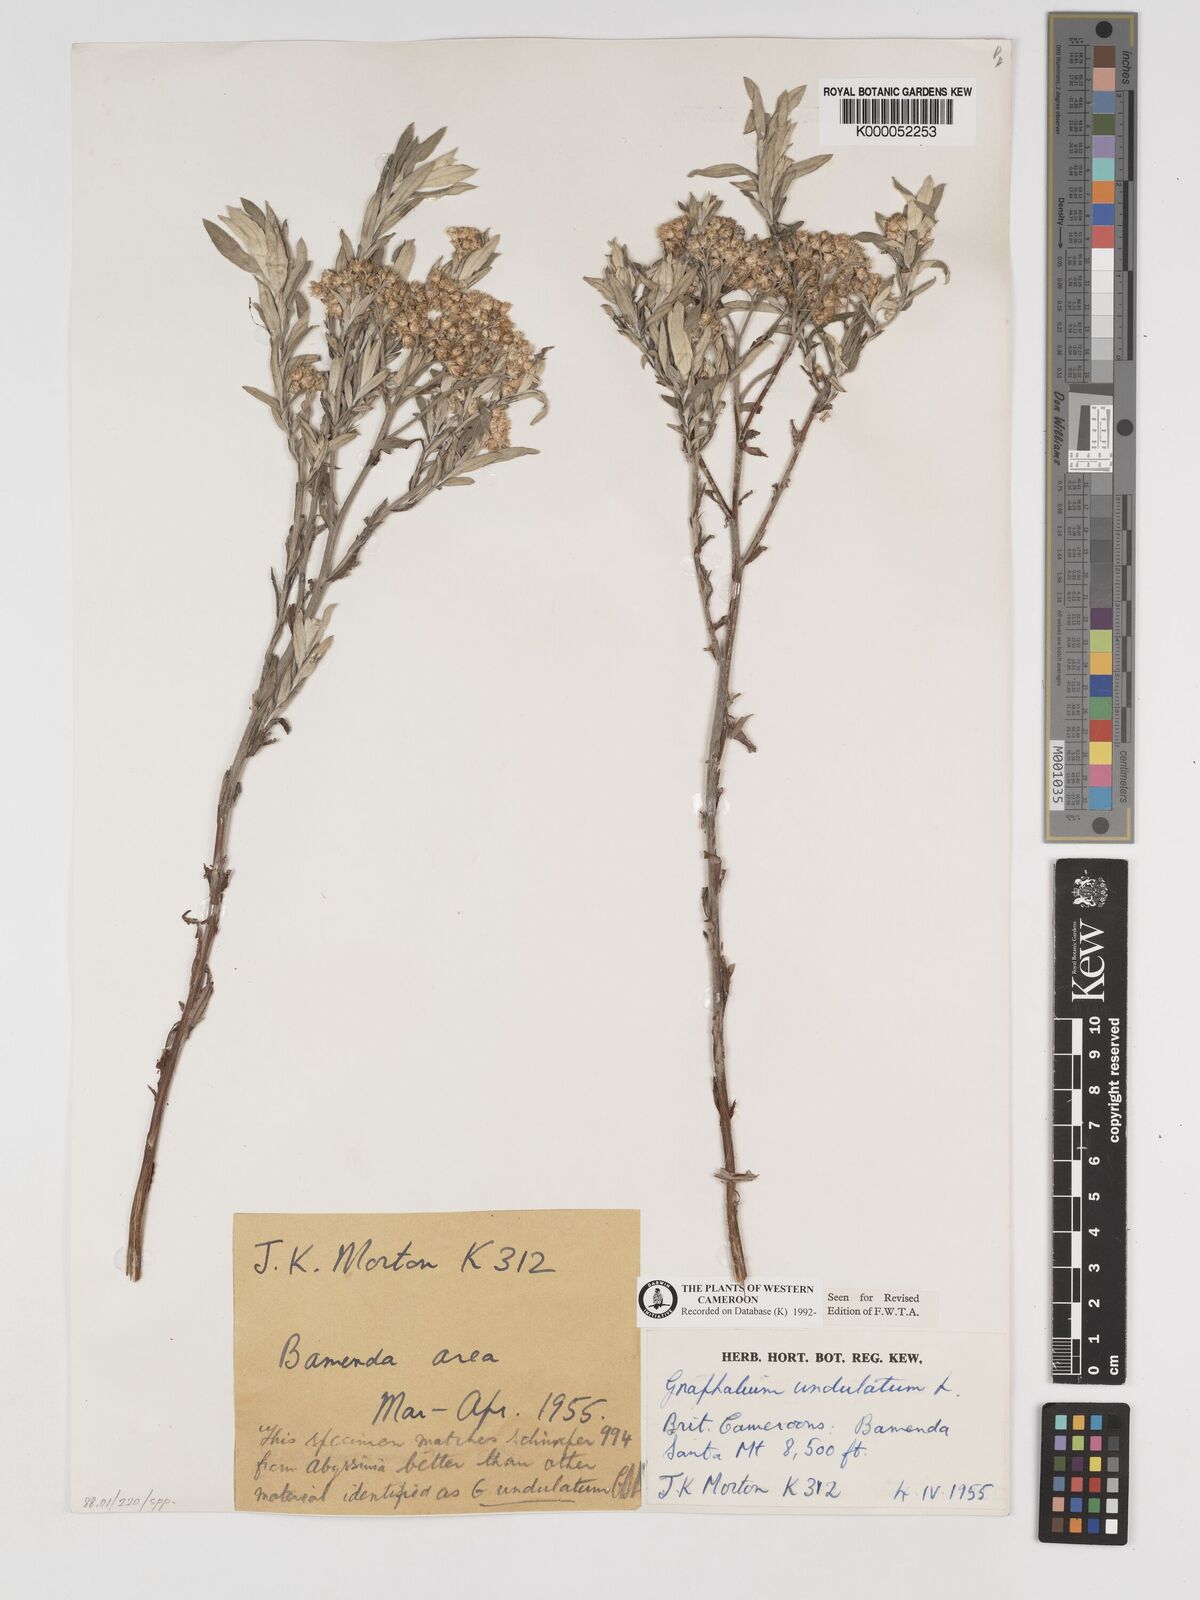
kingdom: Plantae
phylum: Tracheophyta
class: Magnoliopsida
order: Celastrales
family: Celastraceae
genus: Campylostemon
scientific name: Campylostemon
